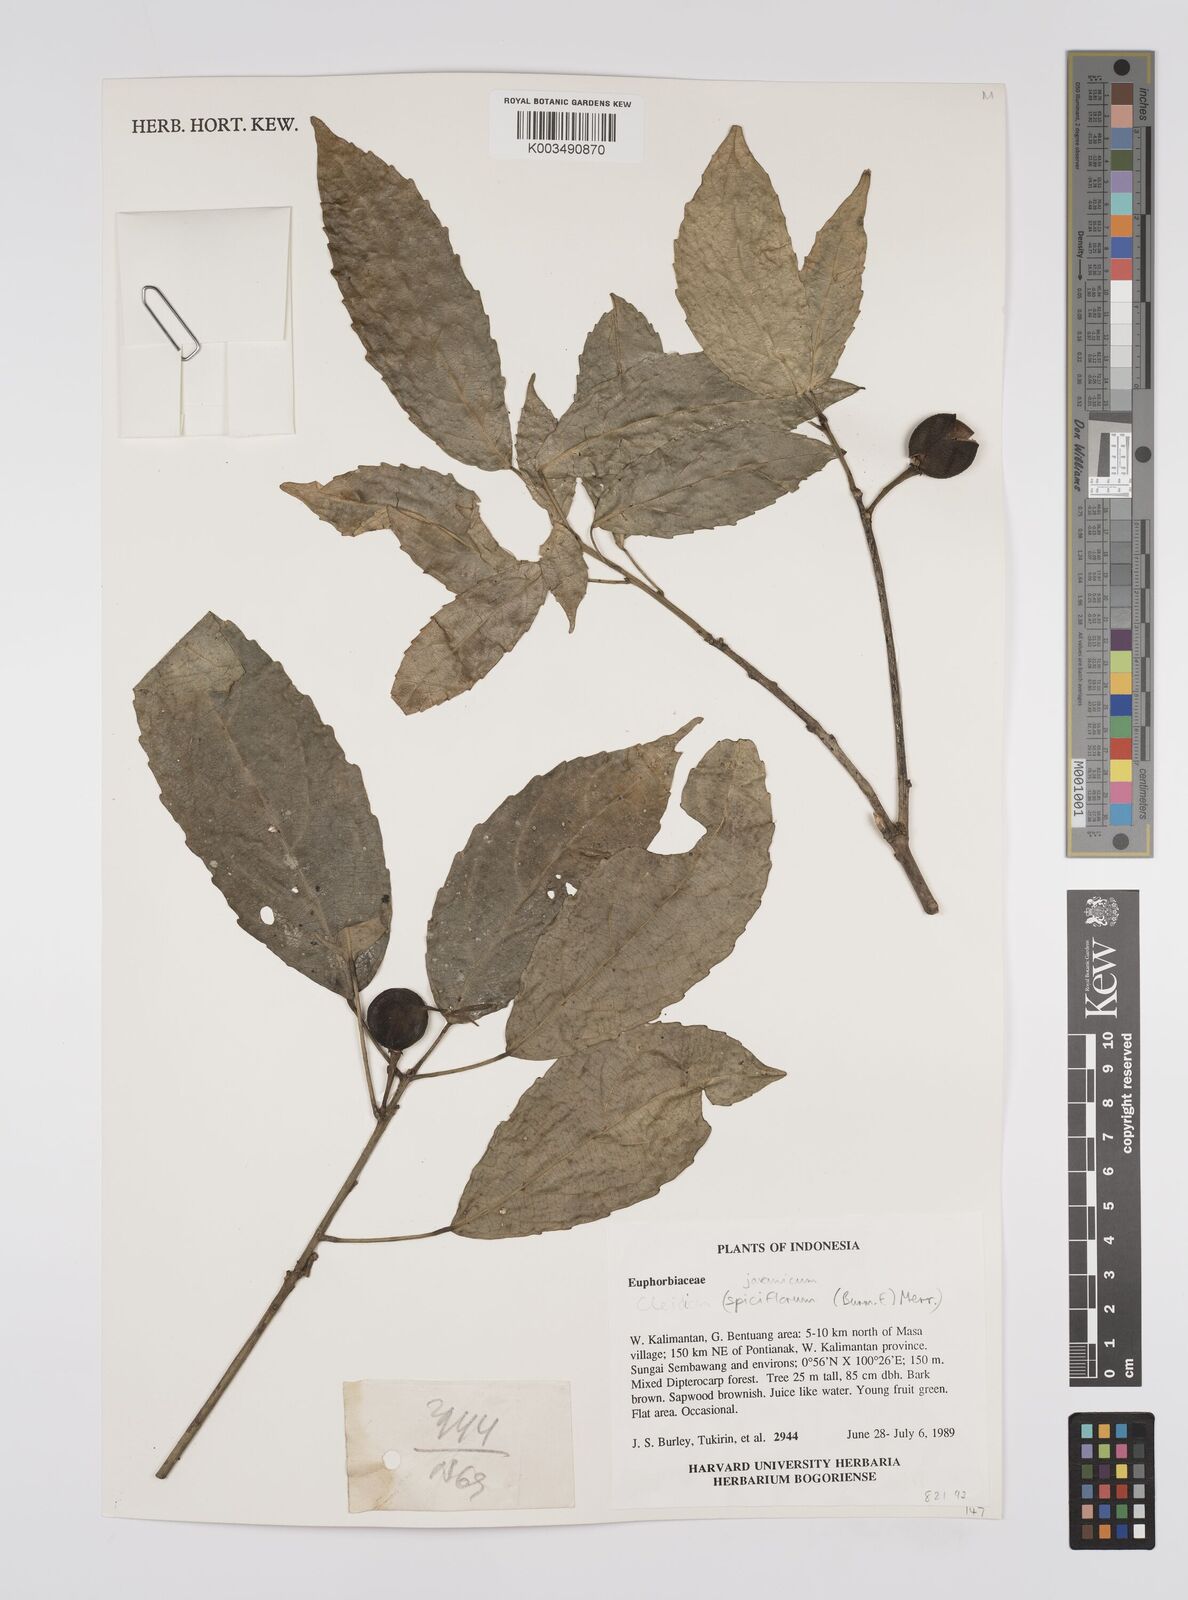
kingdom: Plantae
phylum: Tracheophyta
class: Magnoliopsida
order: Malpighiales
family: Euphorbiaceae
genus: Cleidion
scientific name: Cleidion javanicum
